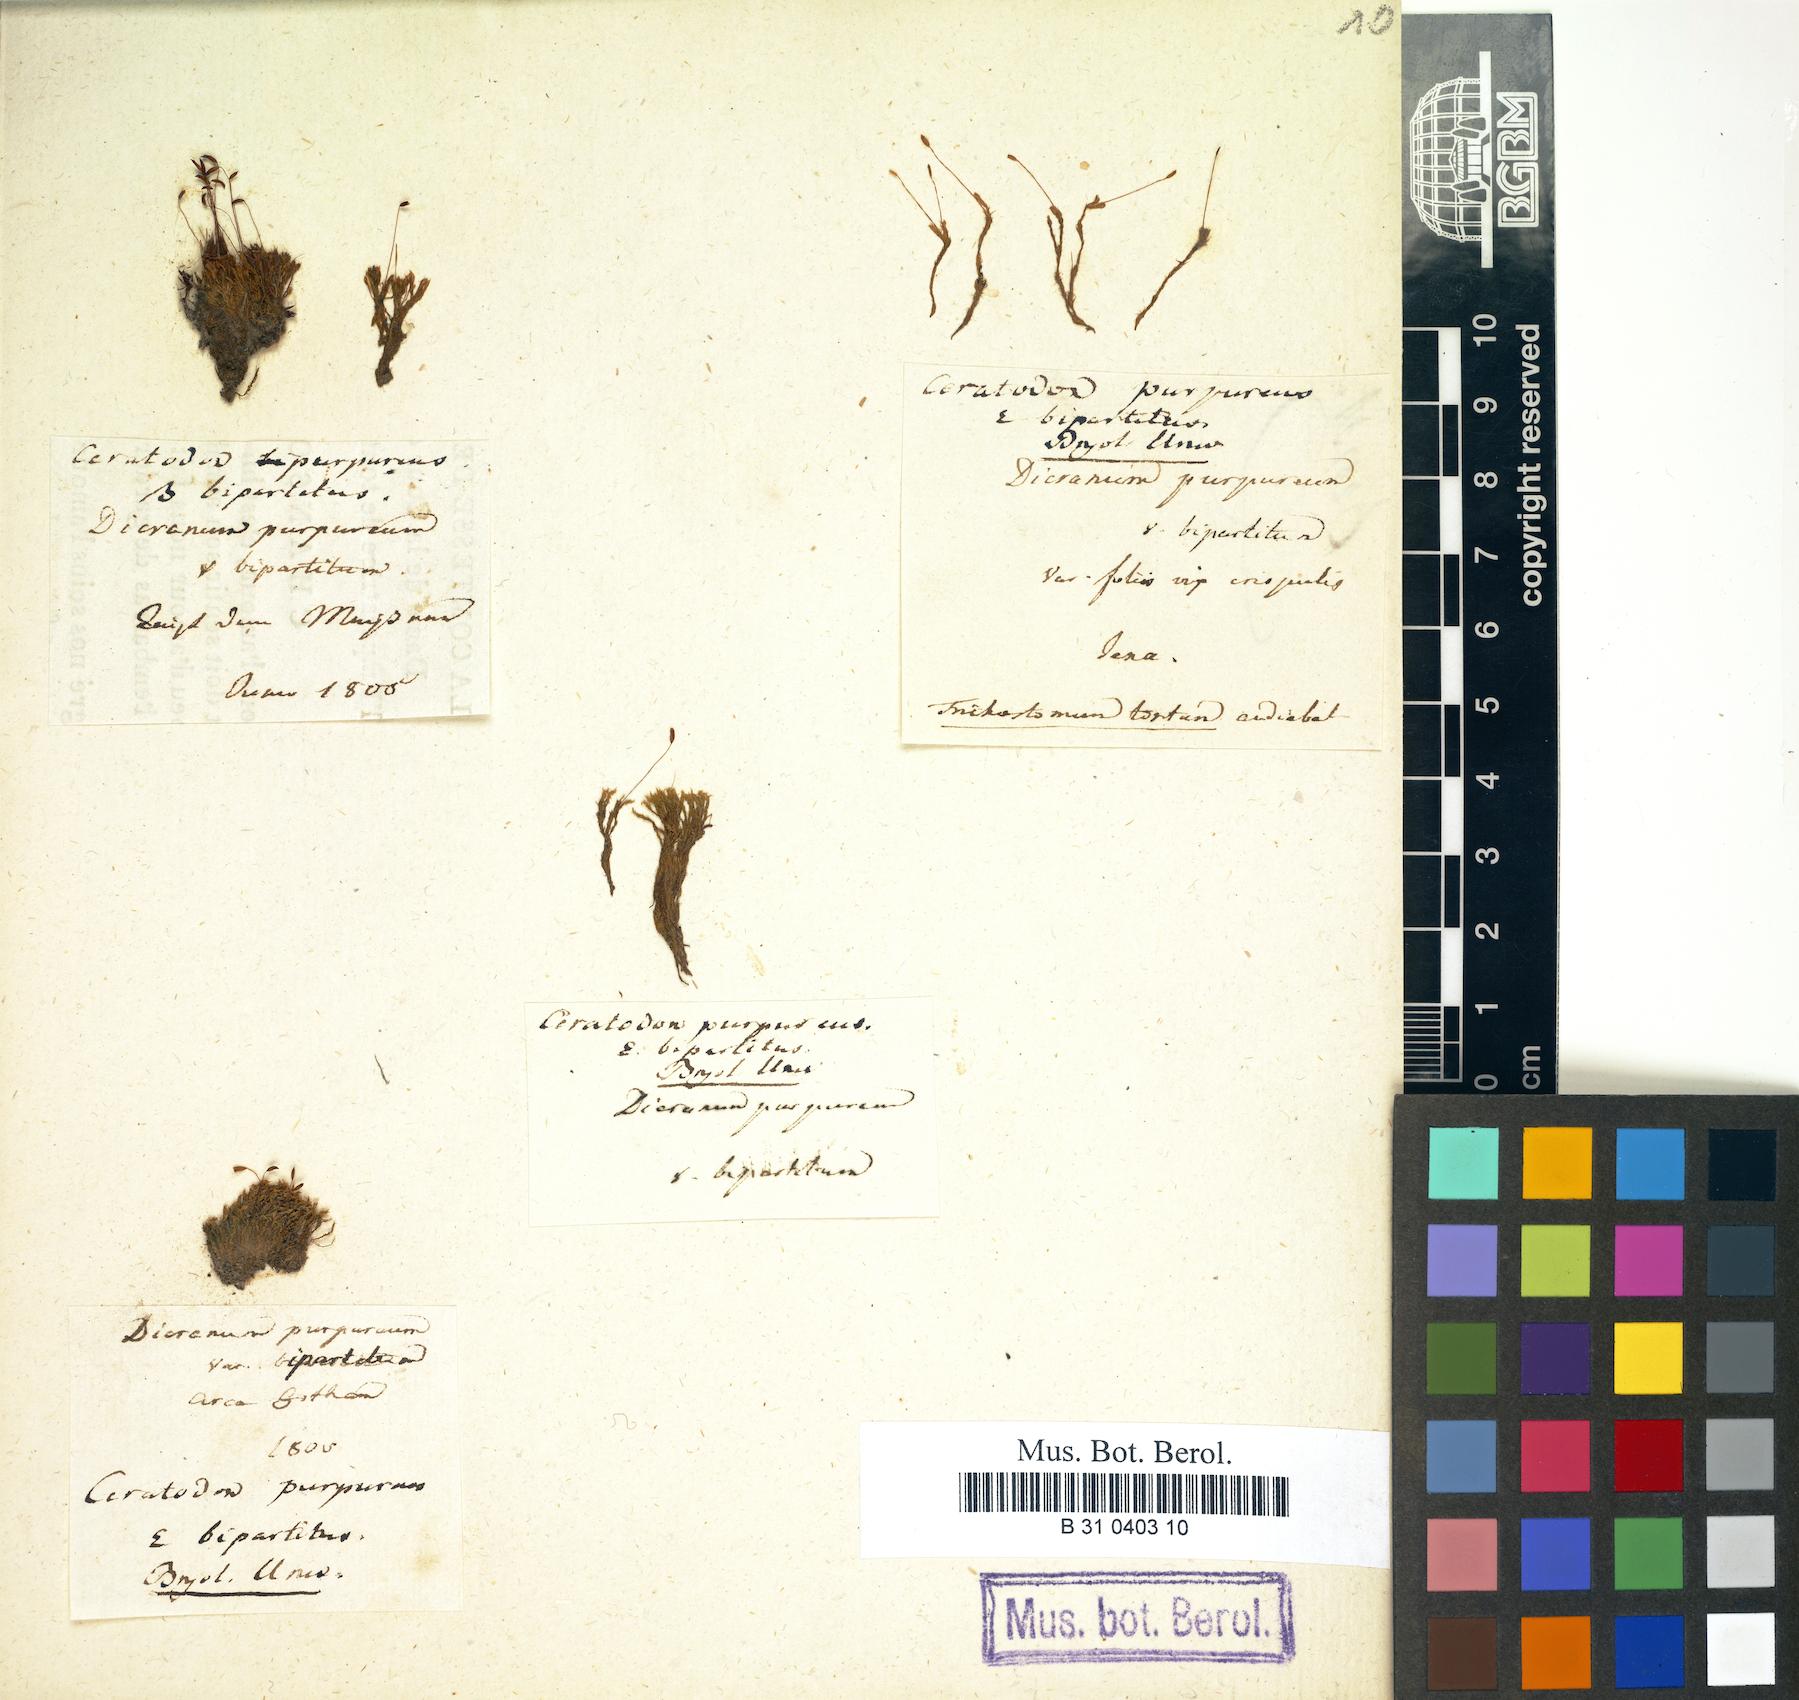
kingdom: Plantae
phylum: Bryophyta
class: Bryopsida
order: Dicranales
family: Ditrichaceae
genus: Ceratodon
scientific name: Ceratodon purpureus
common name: Redshank
